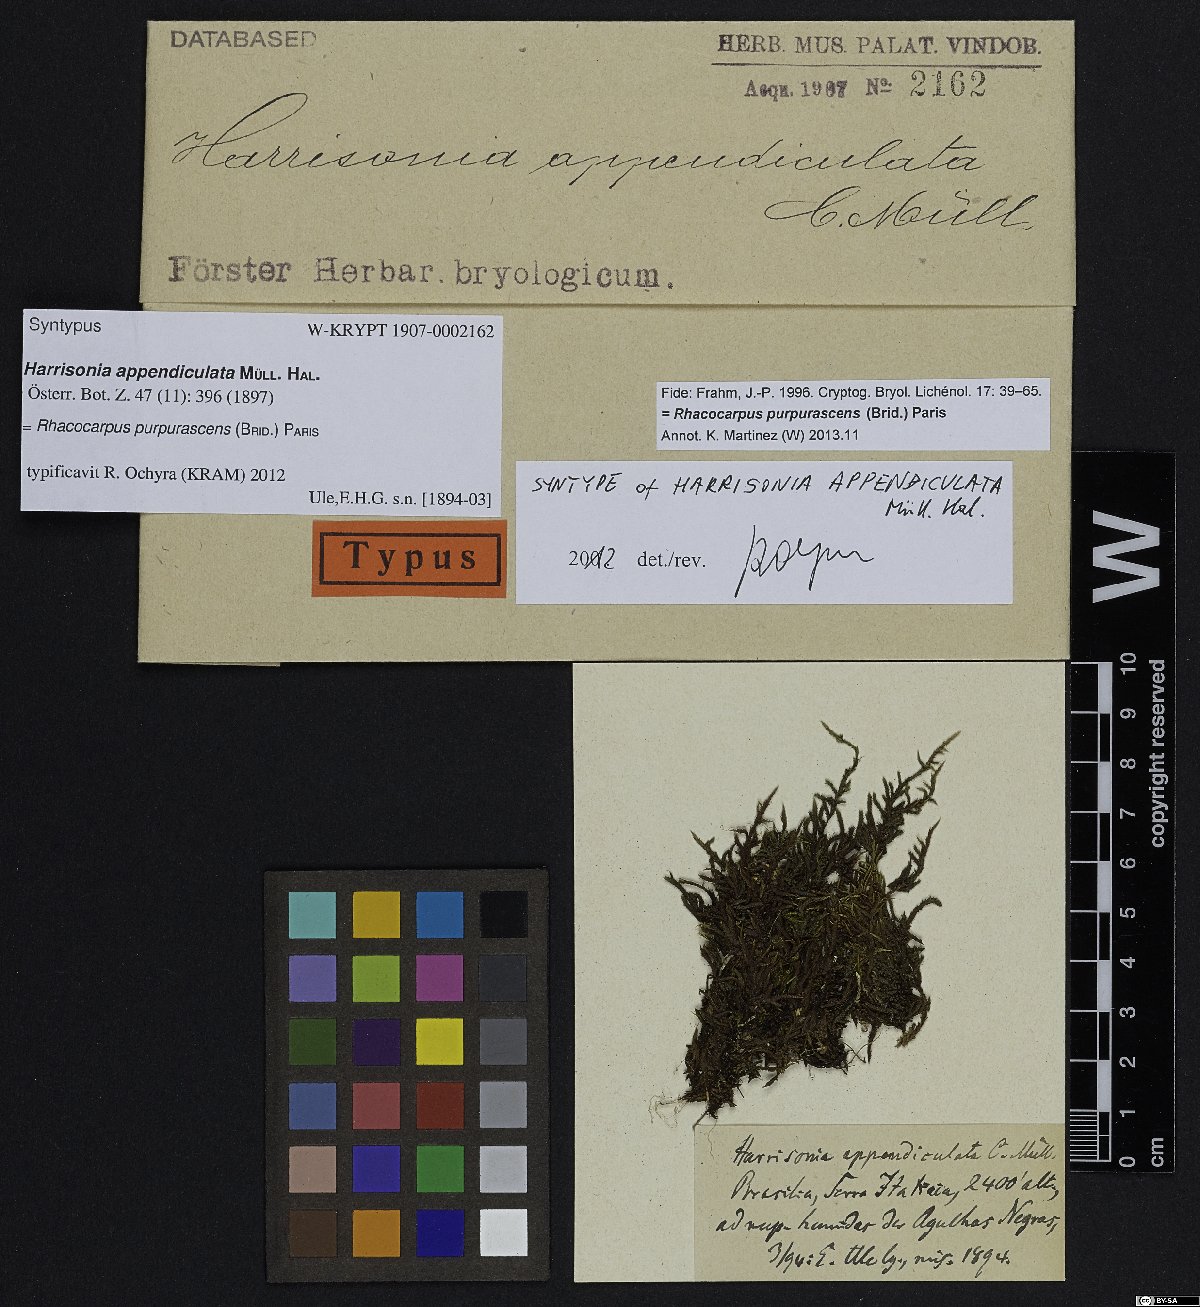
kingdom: Plantae
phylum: Bryophyta
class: Bryopsida
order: Hedwigiales
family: Hedwigiaceae
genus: Rhacocarpus
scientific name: Rhacocarpus purpurascens
